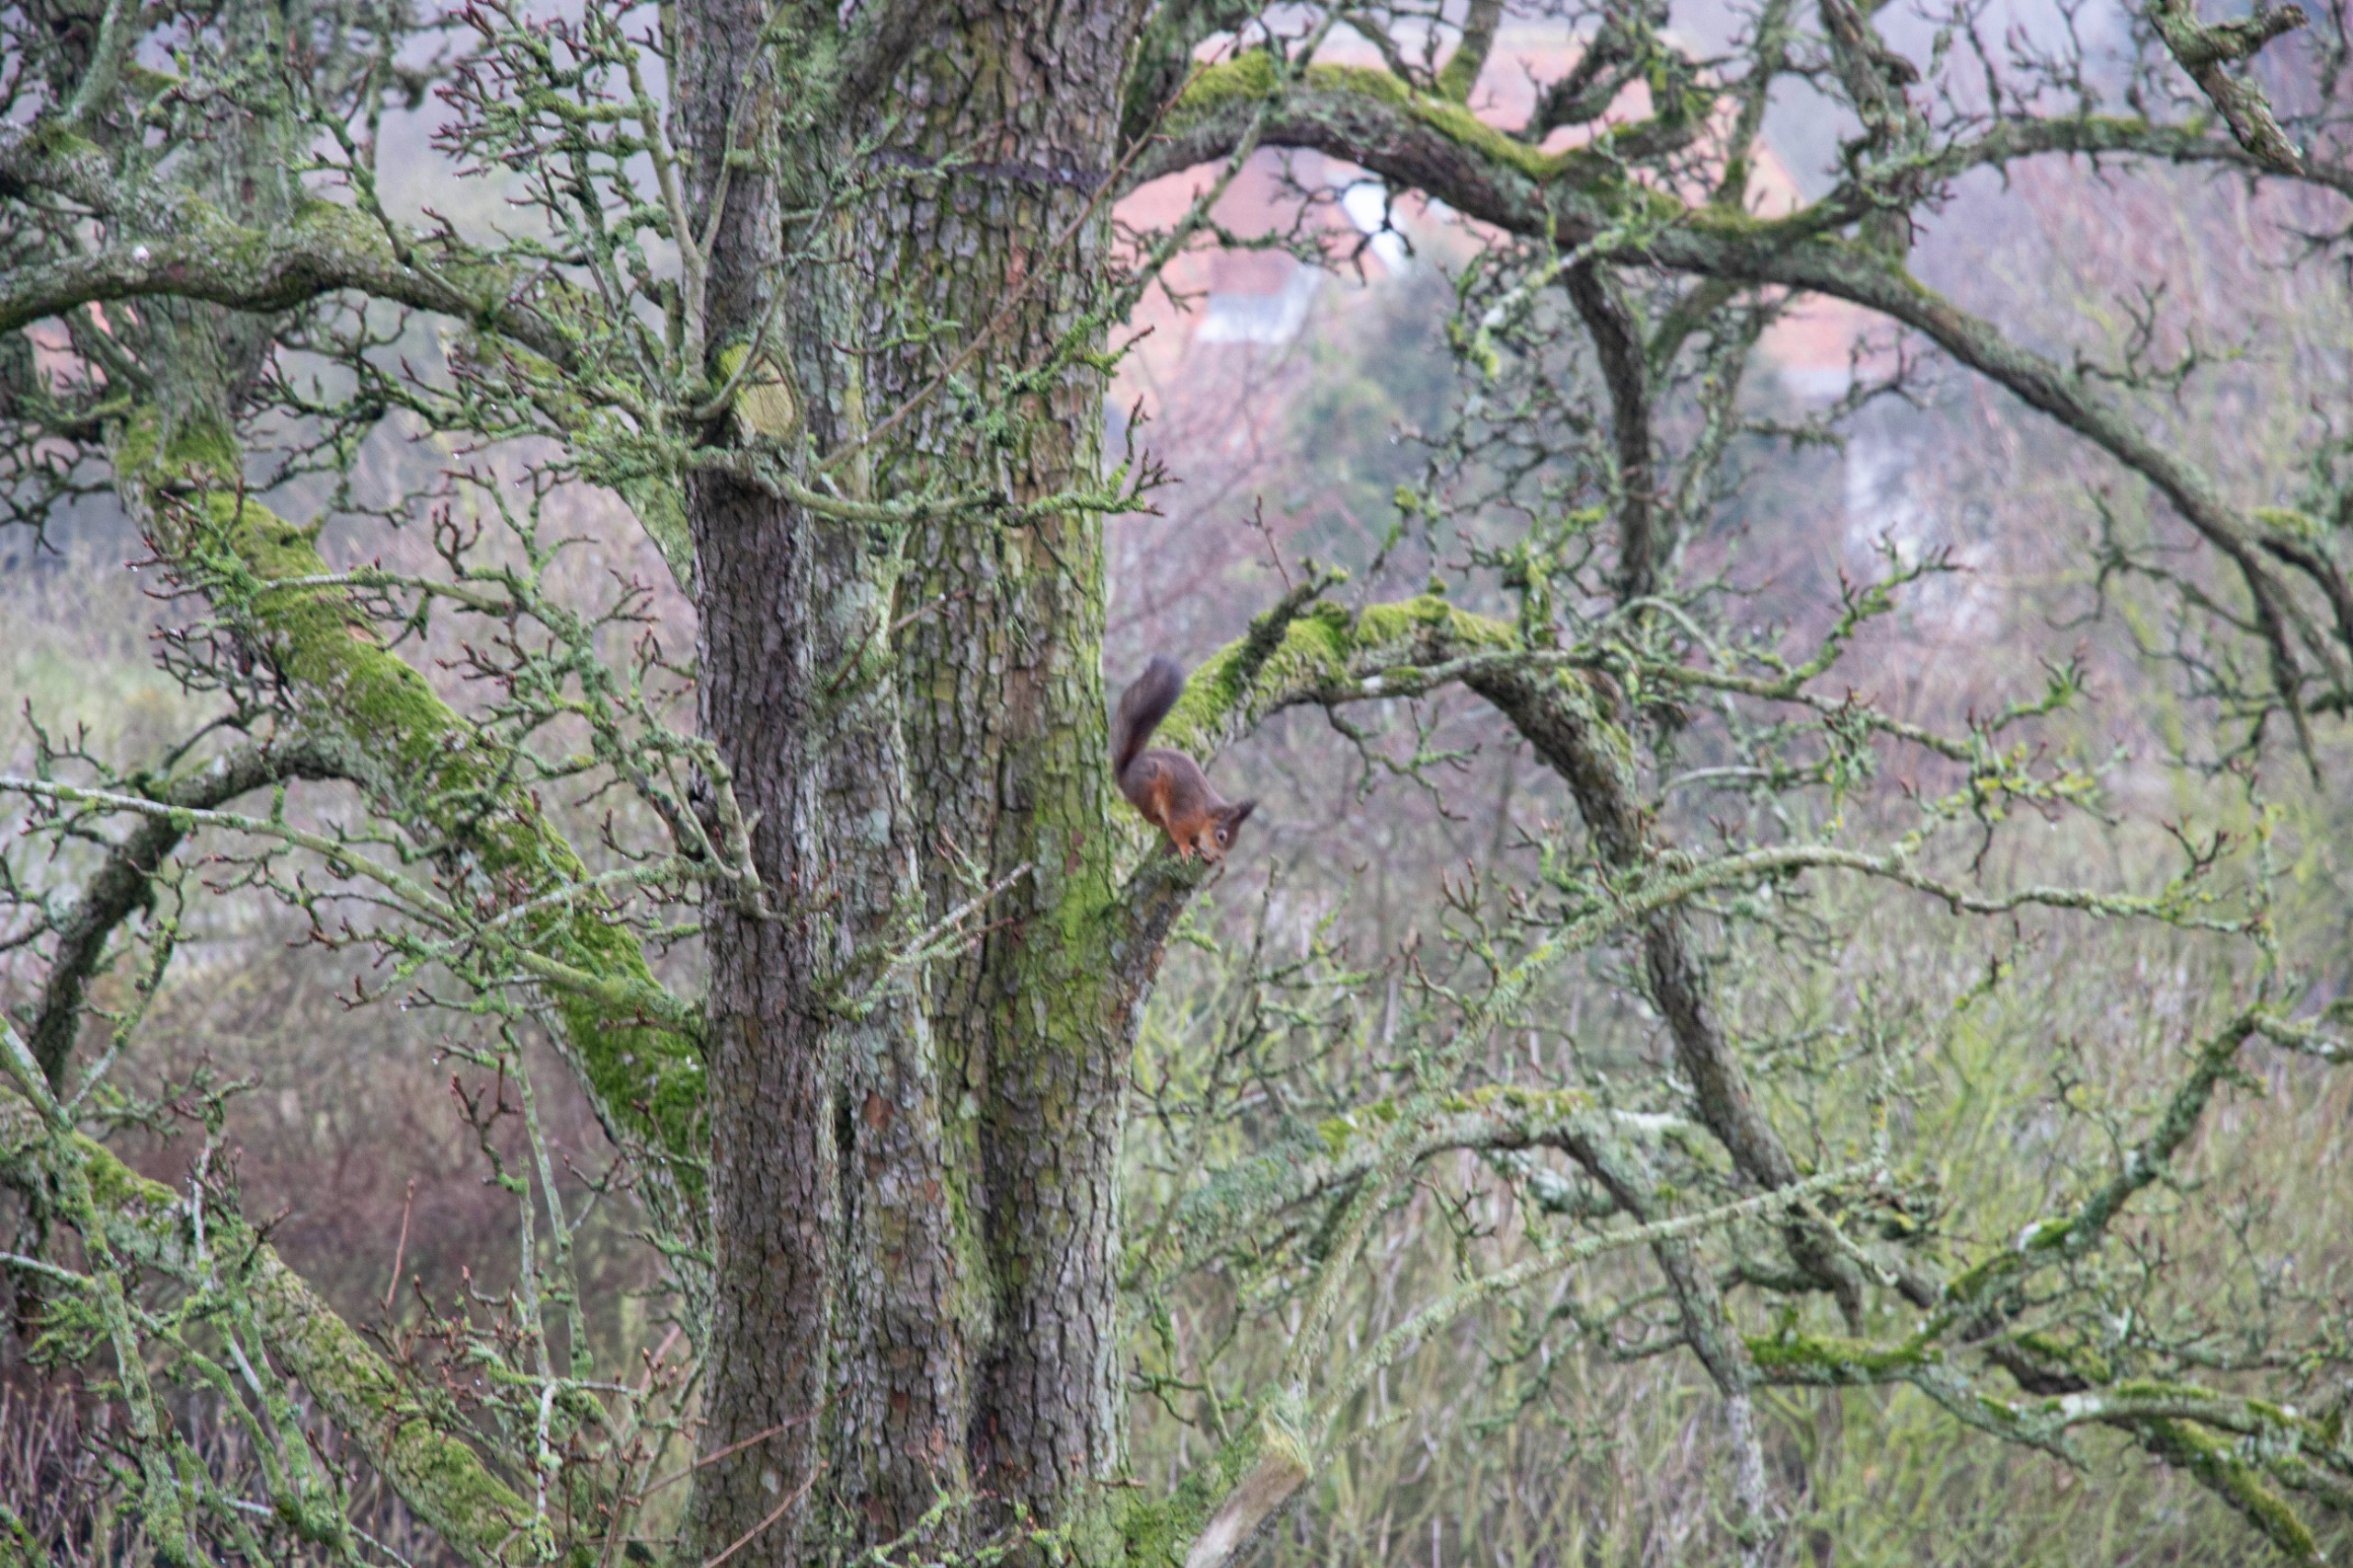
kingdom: Animalia
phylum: Chordata
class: Mammalia
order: Rodentia
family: Sciuridae
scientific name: Sciuridae
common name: Egern
